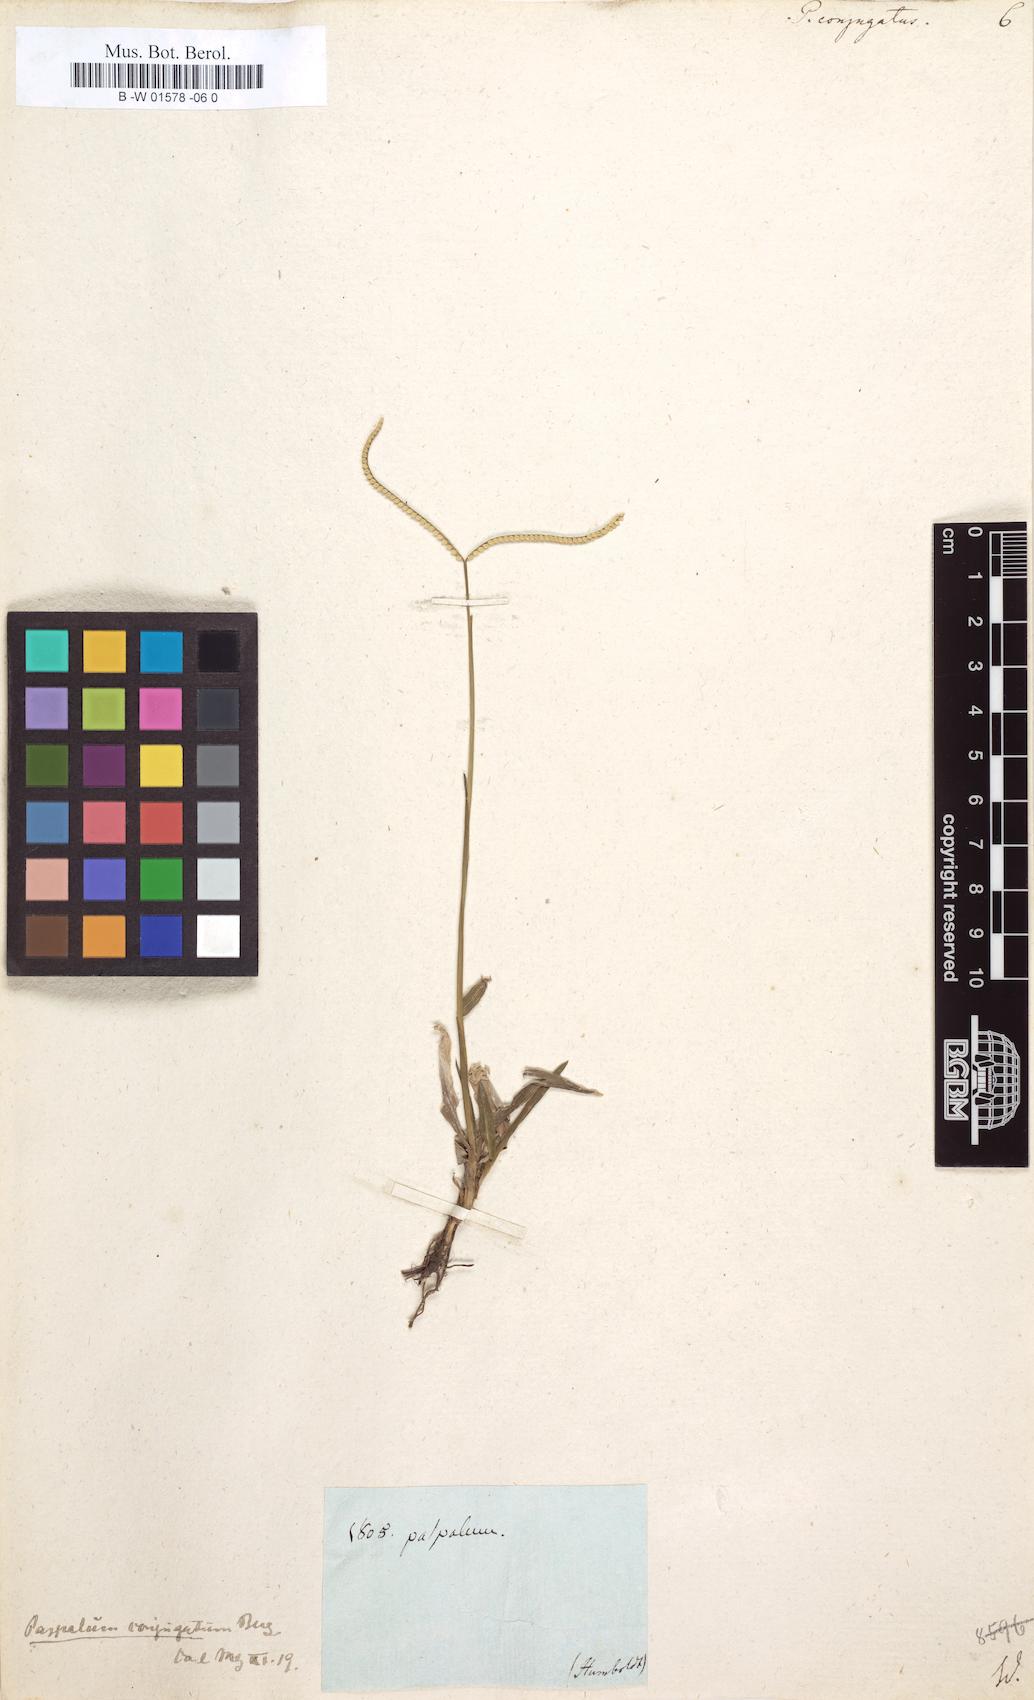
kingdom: Plantae
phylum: Tracheophyta
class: Liliopsida
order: Poales
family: Poaceae
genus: Paspalum
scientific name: Paspalum conjugatum
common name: Hilograss
